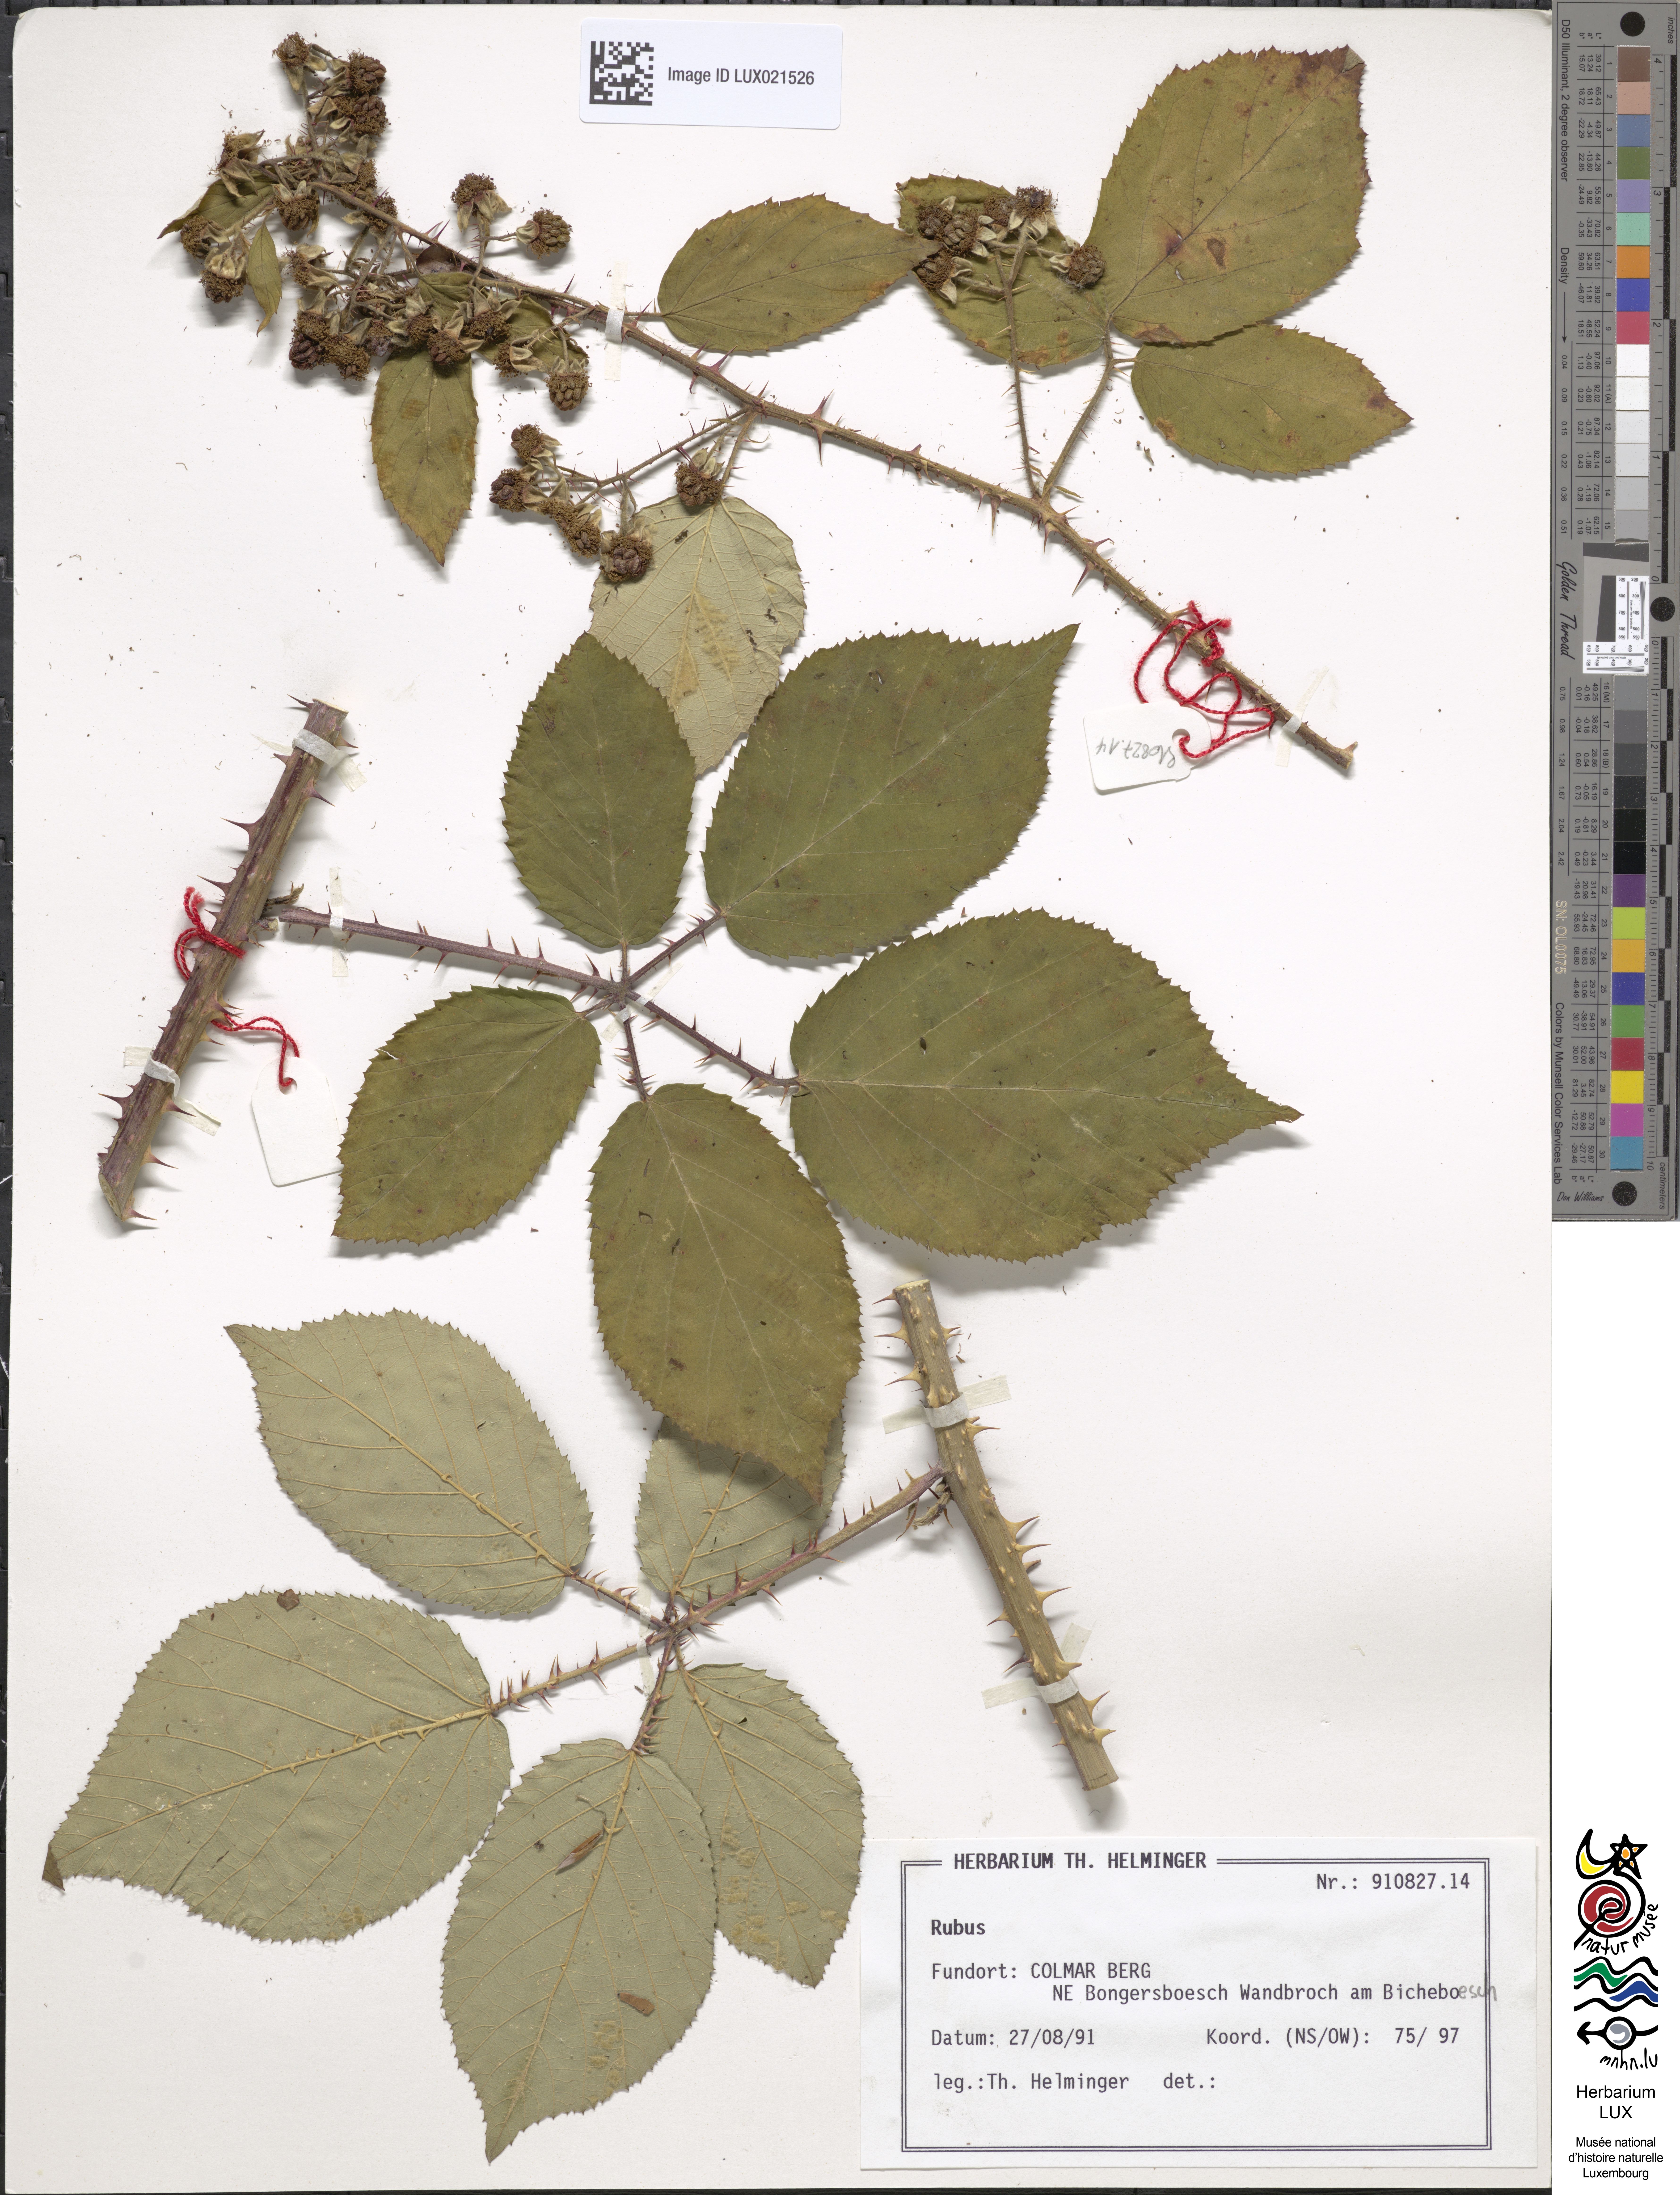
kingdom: Plantae
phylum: Tracheophyta
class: Magnoliopsida
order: Rosales
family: Rosaceae
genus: Rubus
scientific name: Rubus
